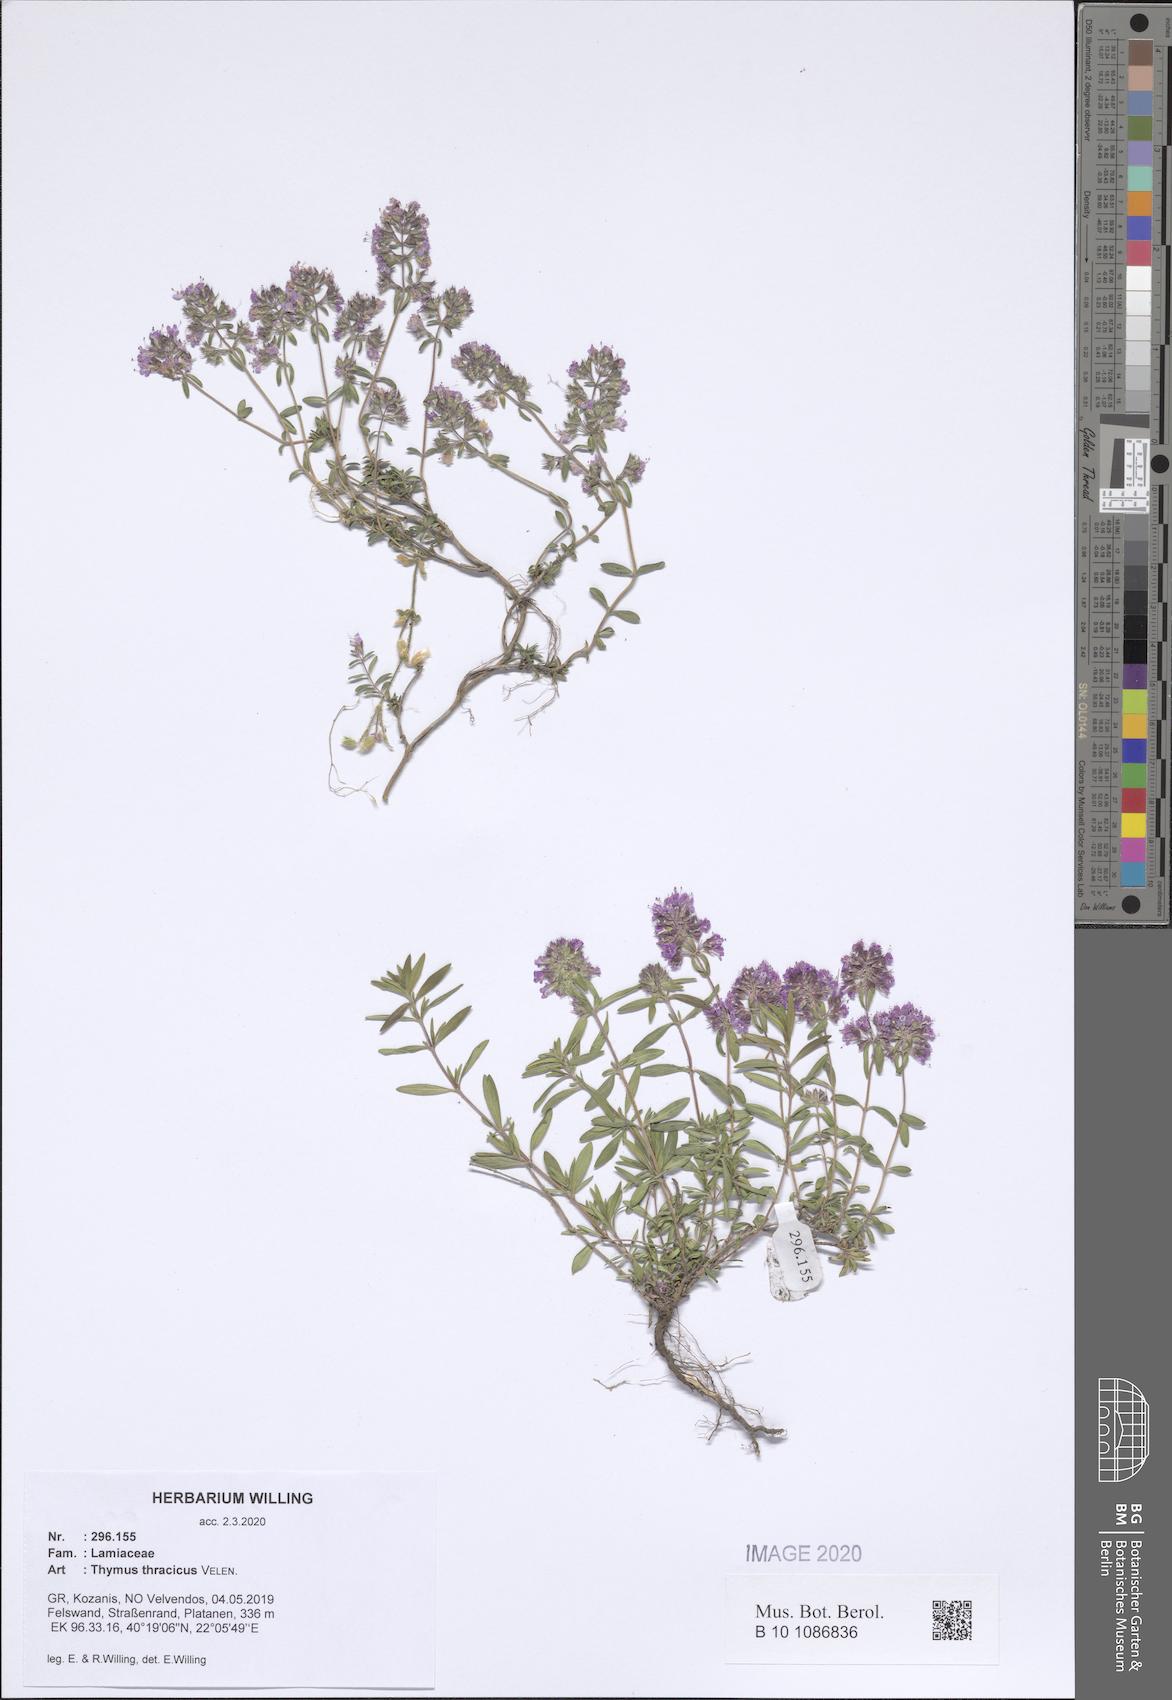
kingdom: Plantae
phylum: Tracheophyta
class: Magnoliopsida
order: Lamiales
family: Lamiaceae
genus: Thymus
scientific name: Thymus longicaulis
